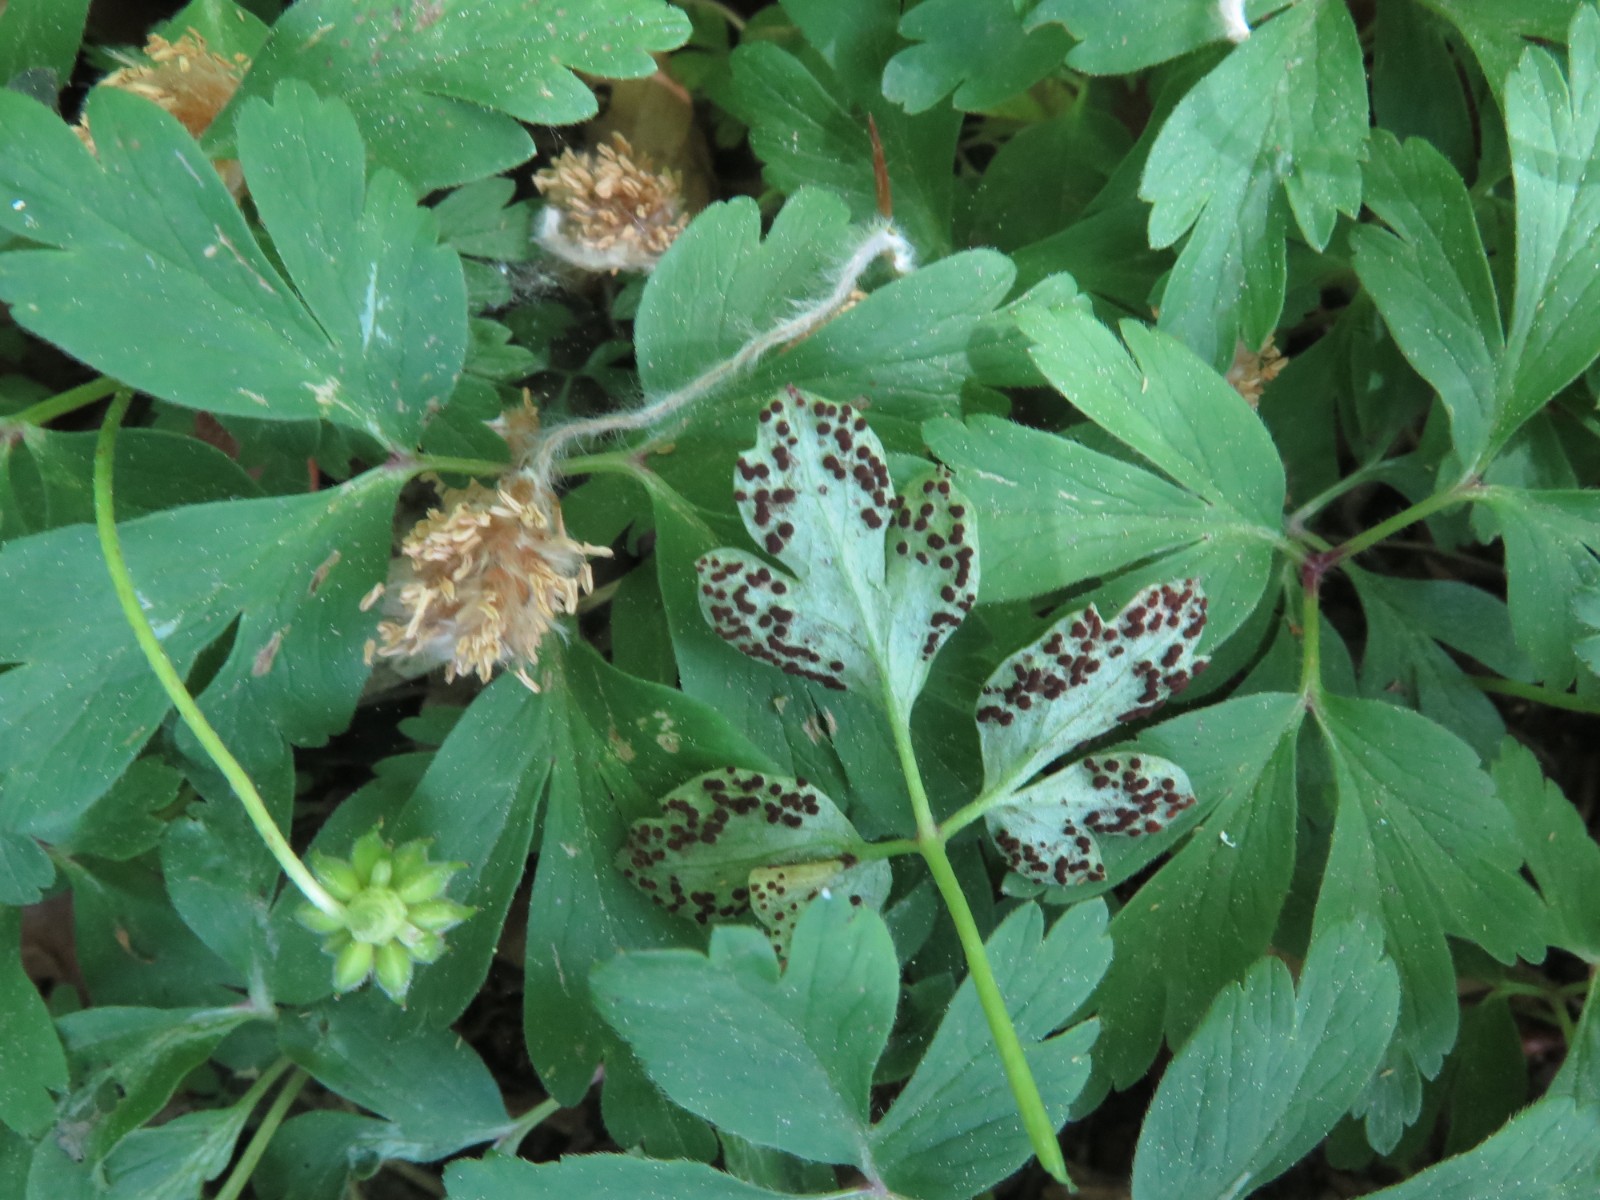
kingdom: Fungi
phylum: Basidiomycota
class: Pucciniomycetes
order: Pucciniales
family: Tranzscheliaceae
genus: Tranzschelia
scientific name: Tranzschelia anemones
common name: anemone-knæksporerust
